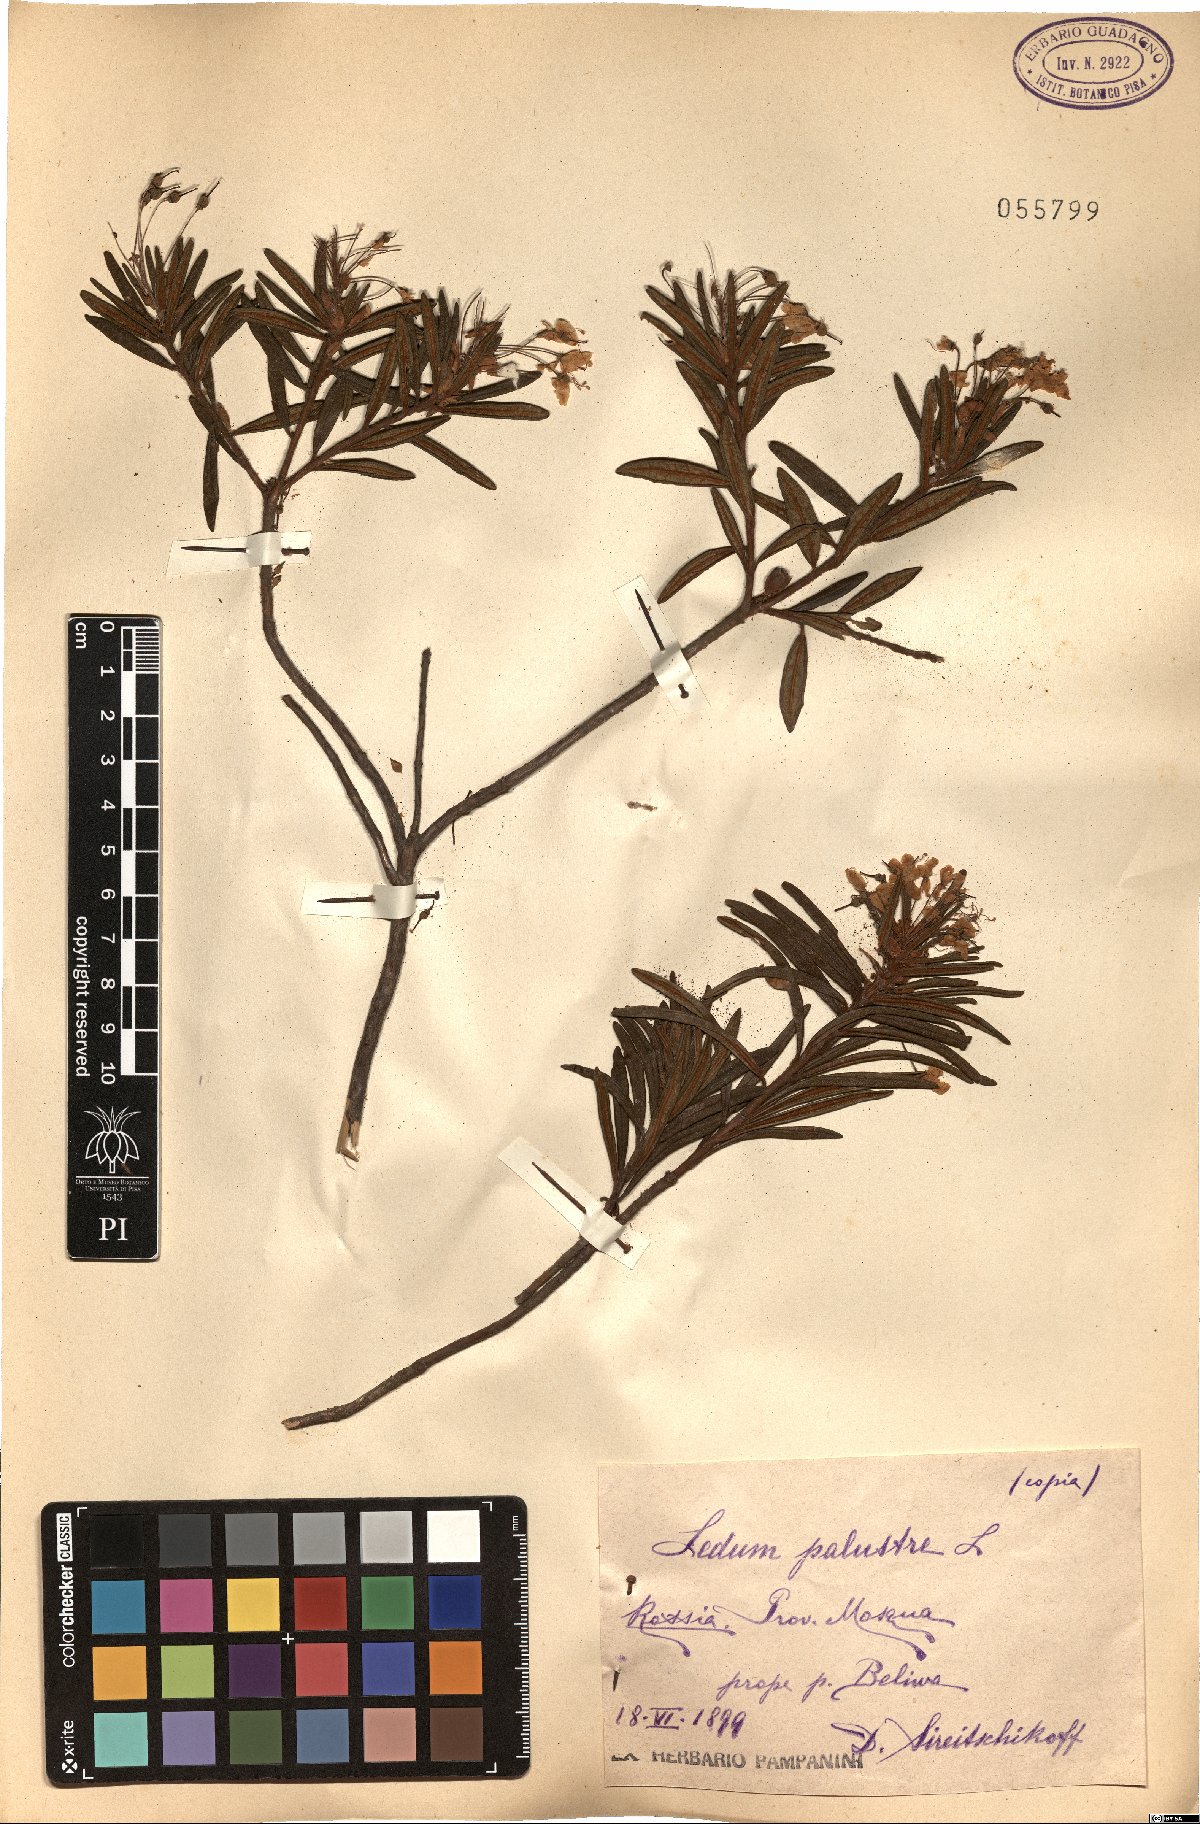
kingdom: Plantae
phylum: Tracheophyta
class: Magnoliopsida
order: Ericales
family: Ericaceae
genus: Rhododendron
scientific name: Rhododendron tomentosum
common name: Marsh labrador tea
